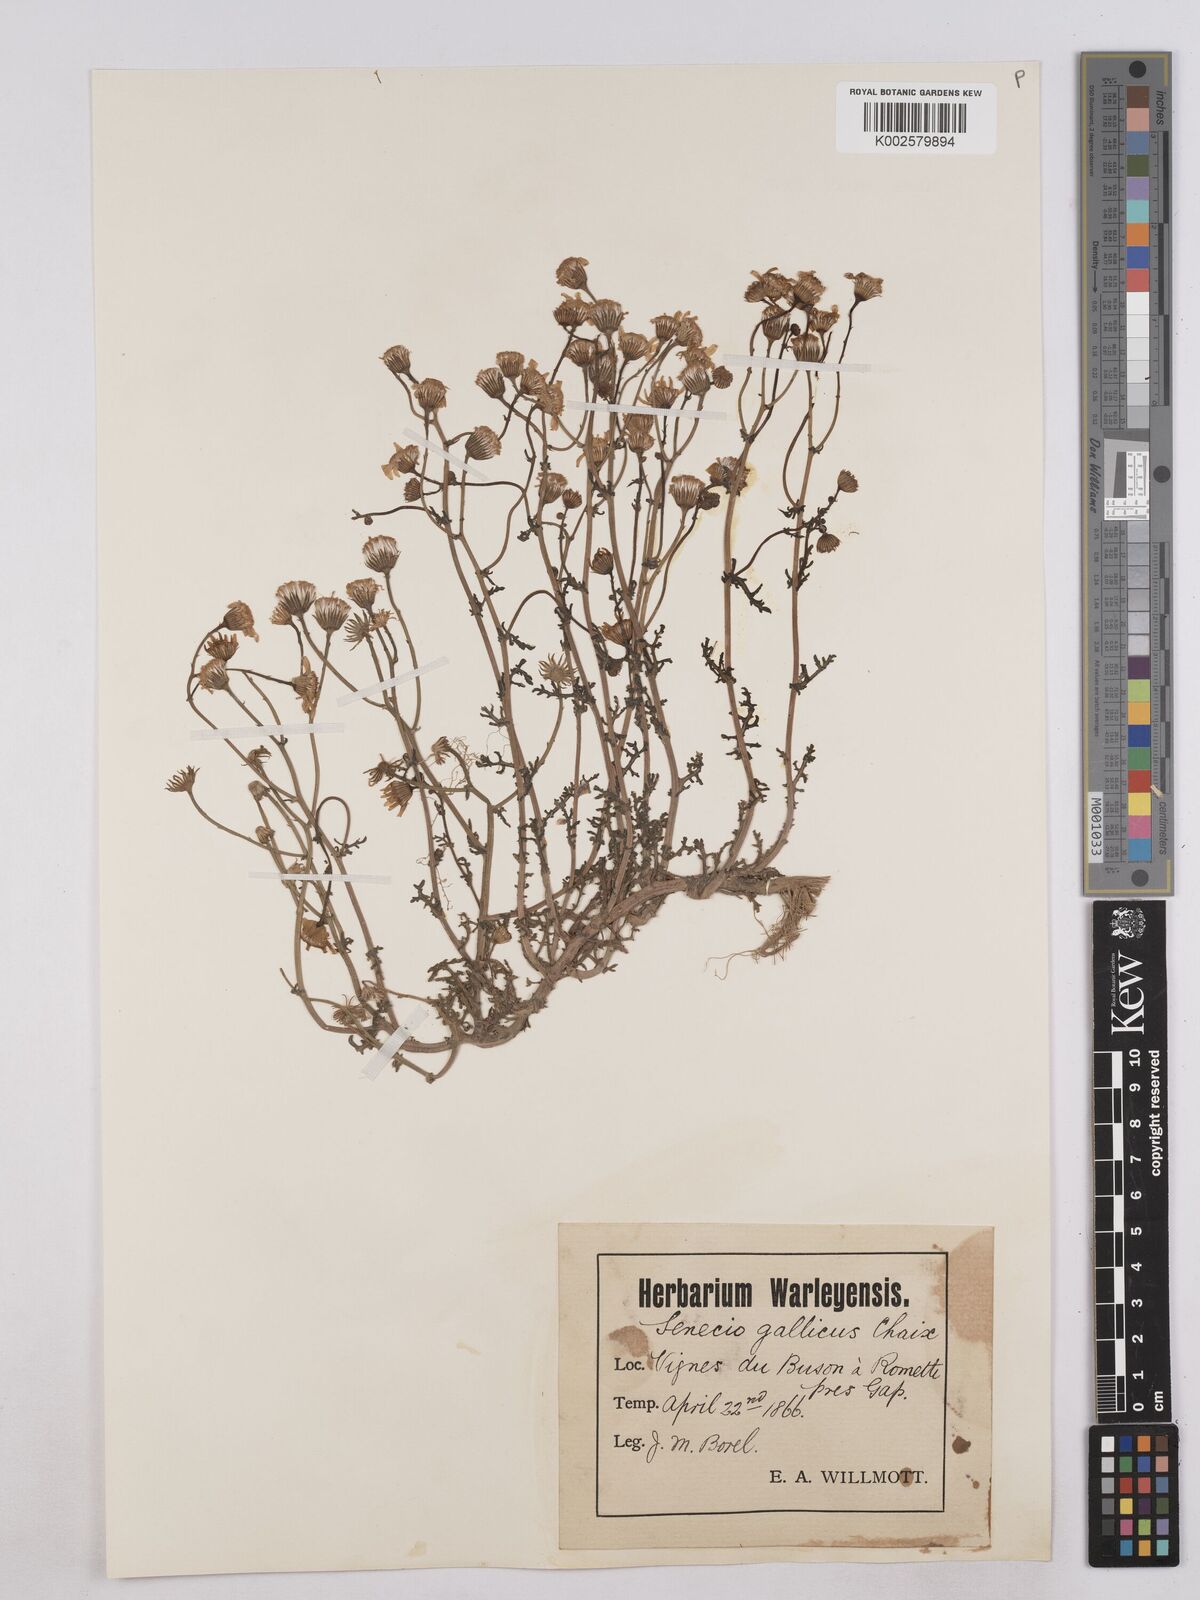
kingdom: Plantae
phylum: Tracheophyta
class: Magnoliopsida
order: Asterales
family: Asteraceae
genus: Senecio
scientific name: Senecio gallicus
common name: French groundsel
